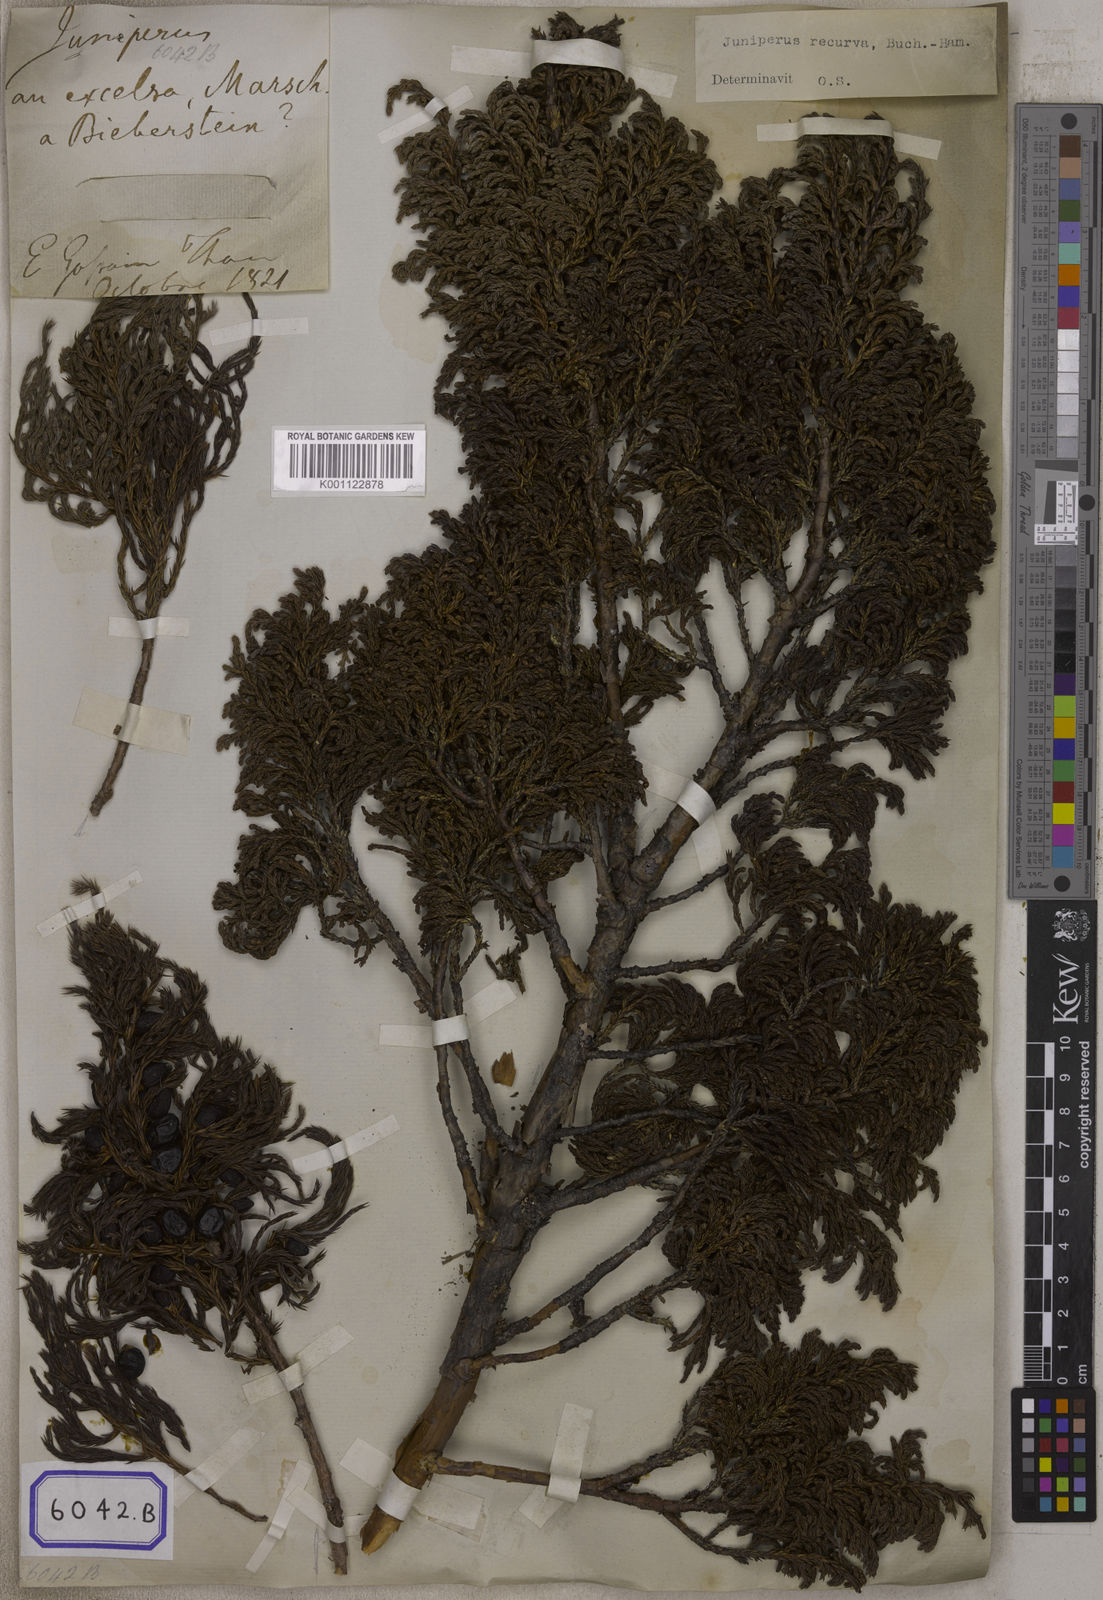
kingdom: Plantae
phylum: Tracheophyta
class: Pinopsida
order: Pinales
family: Cupressaceae
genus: Juniperus
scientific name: Juniperus recurva
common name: Drooping juniper
